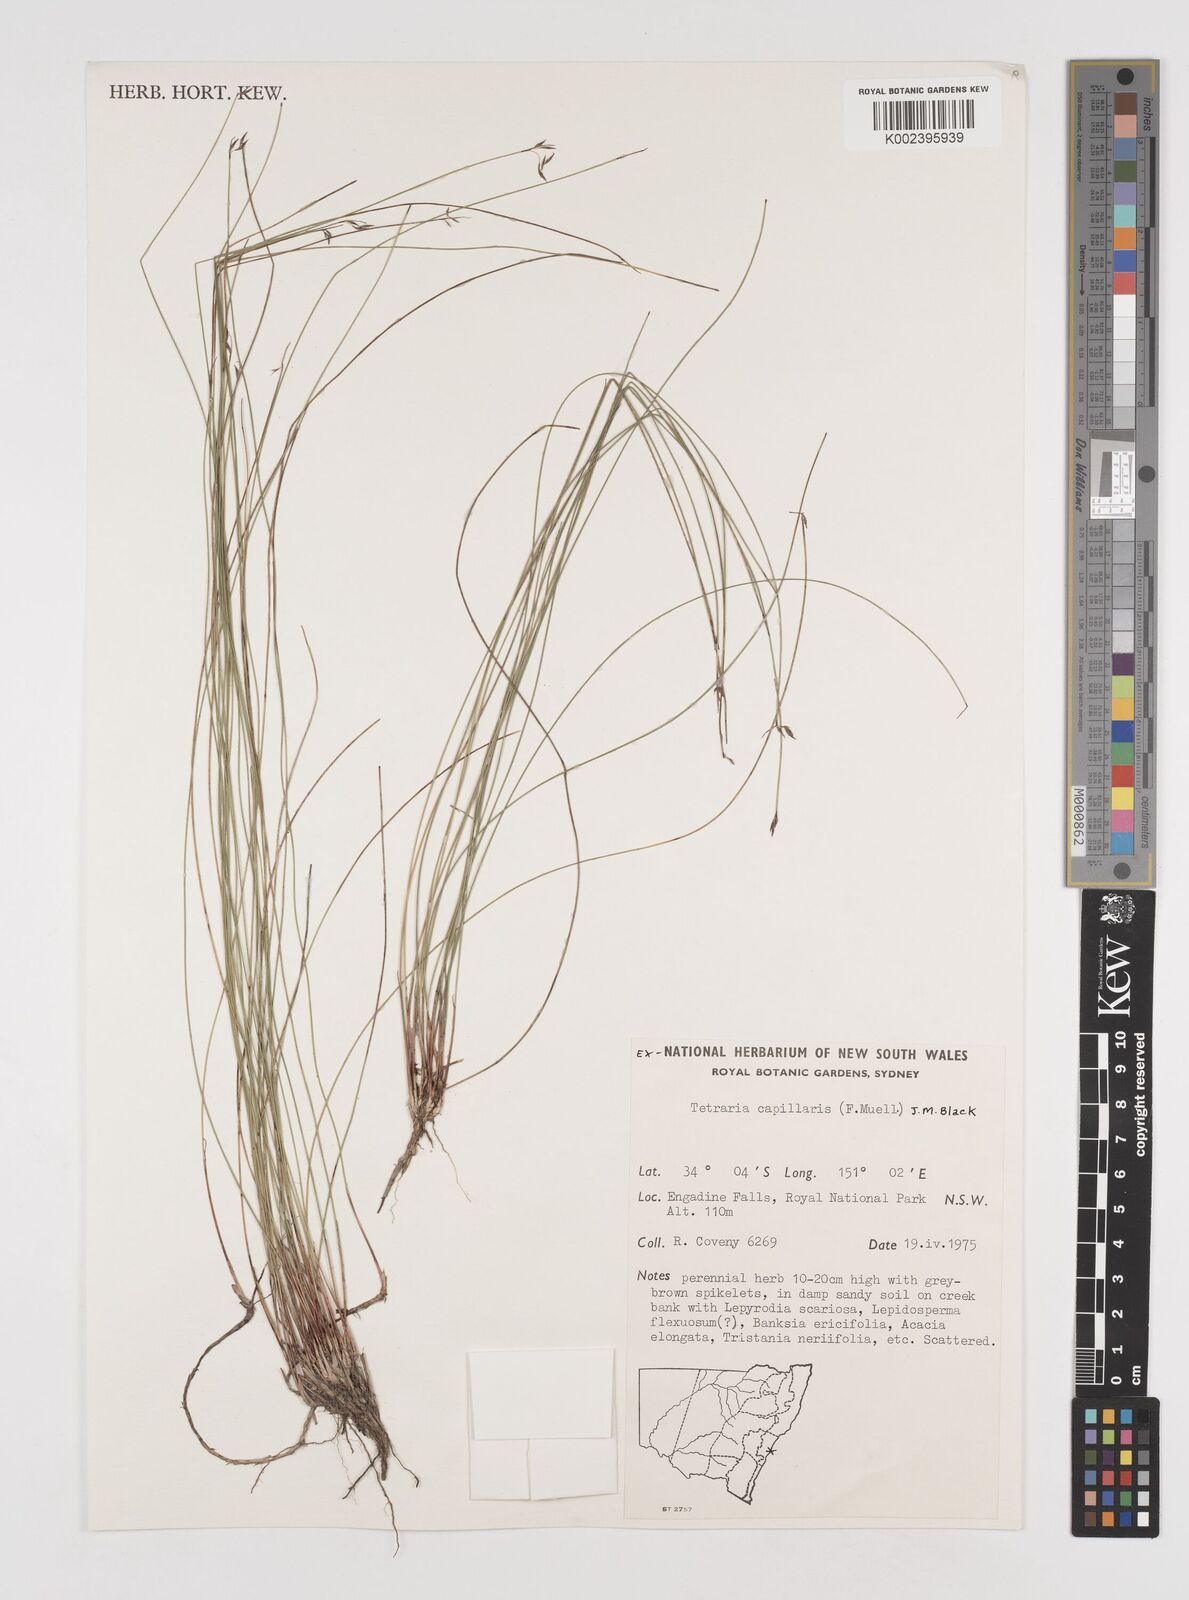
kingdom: Plantae
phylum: Tracheophyta
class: Liliopsida
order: Poales
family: Cyperaceae
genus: Tetraria
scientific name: Tetraria capillaris
